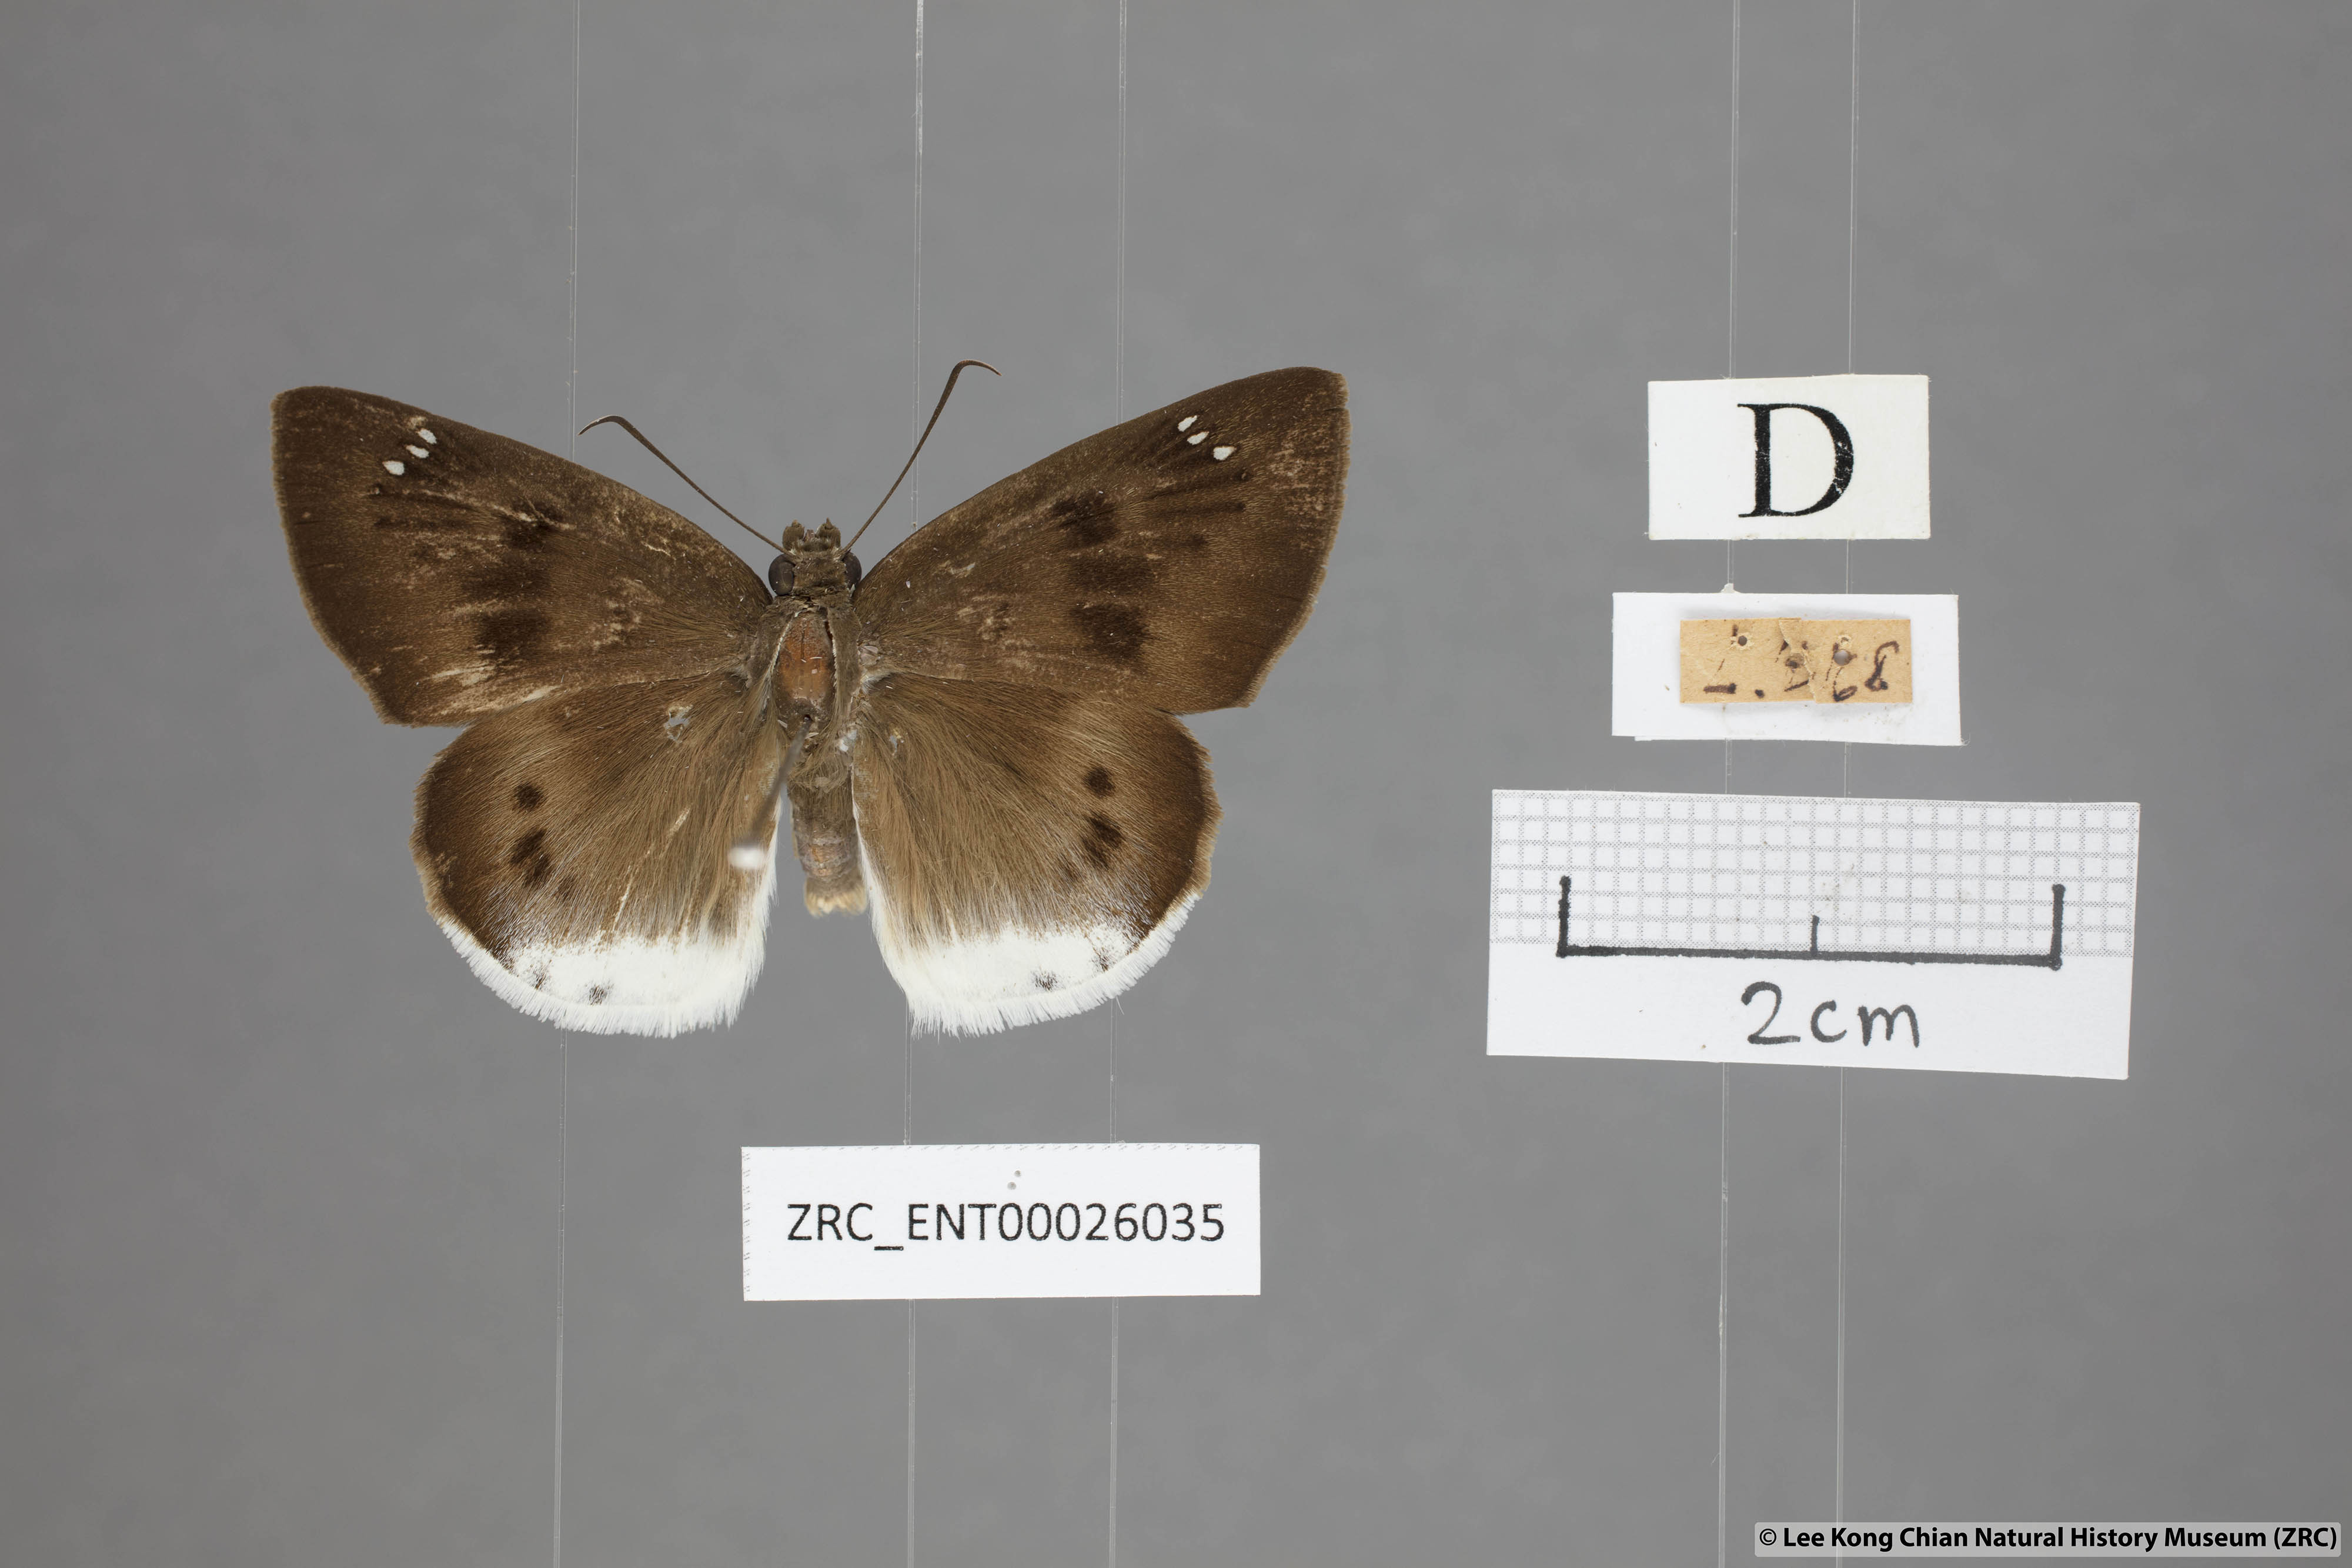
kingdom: Animalia
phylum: Arthropoda
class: Insecta
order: Lepidoptera
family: Hesperiidae
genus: Tagiades
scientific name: Tagiades parra
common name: Straight snow flat
